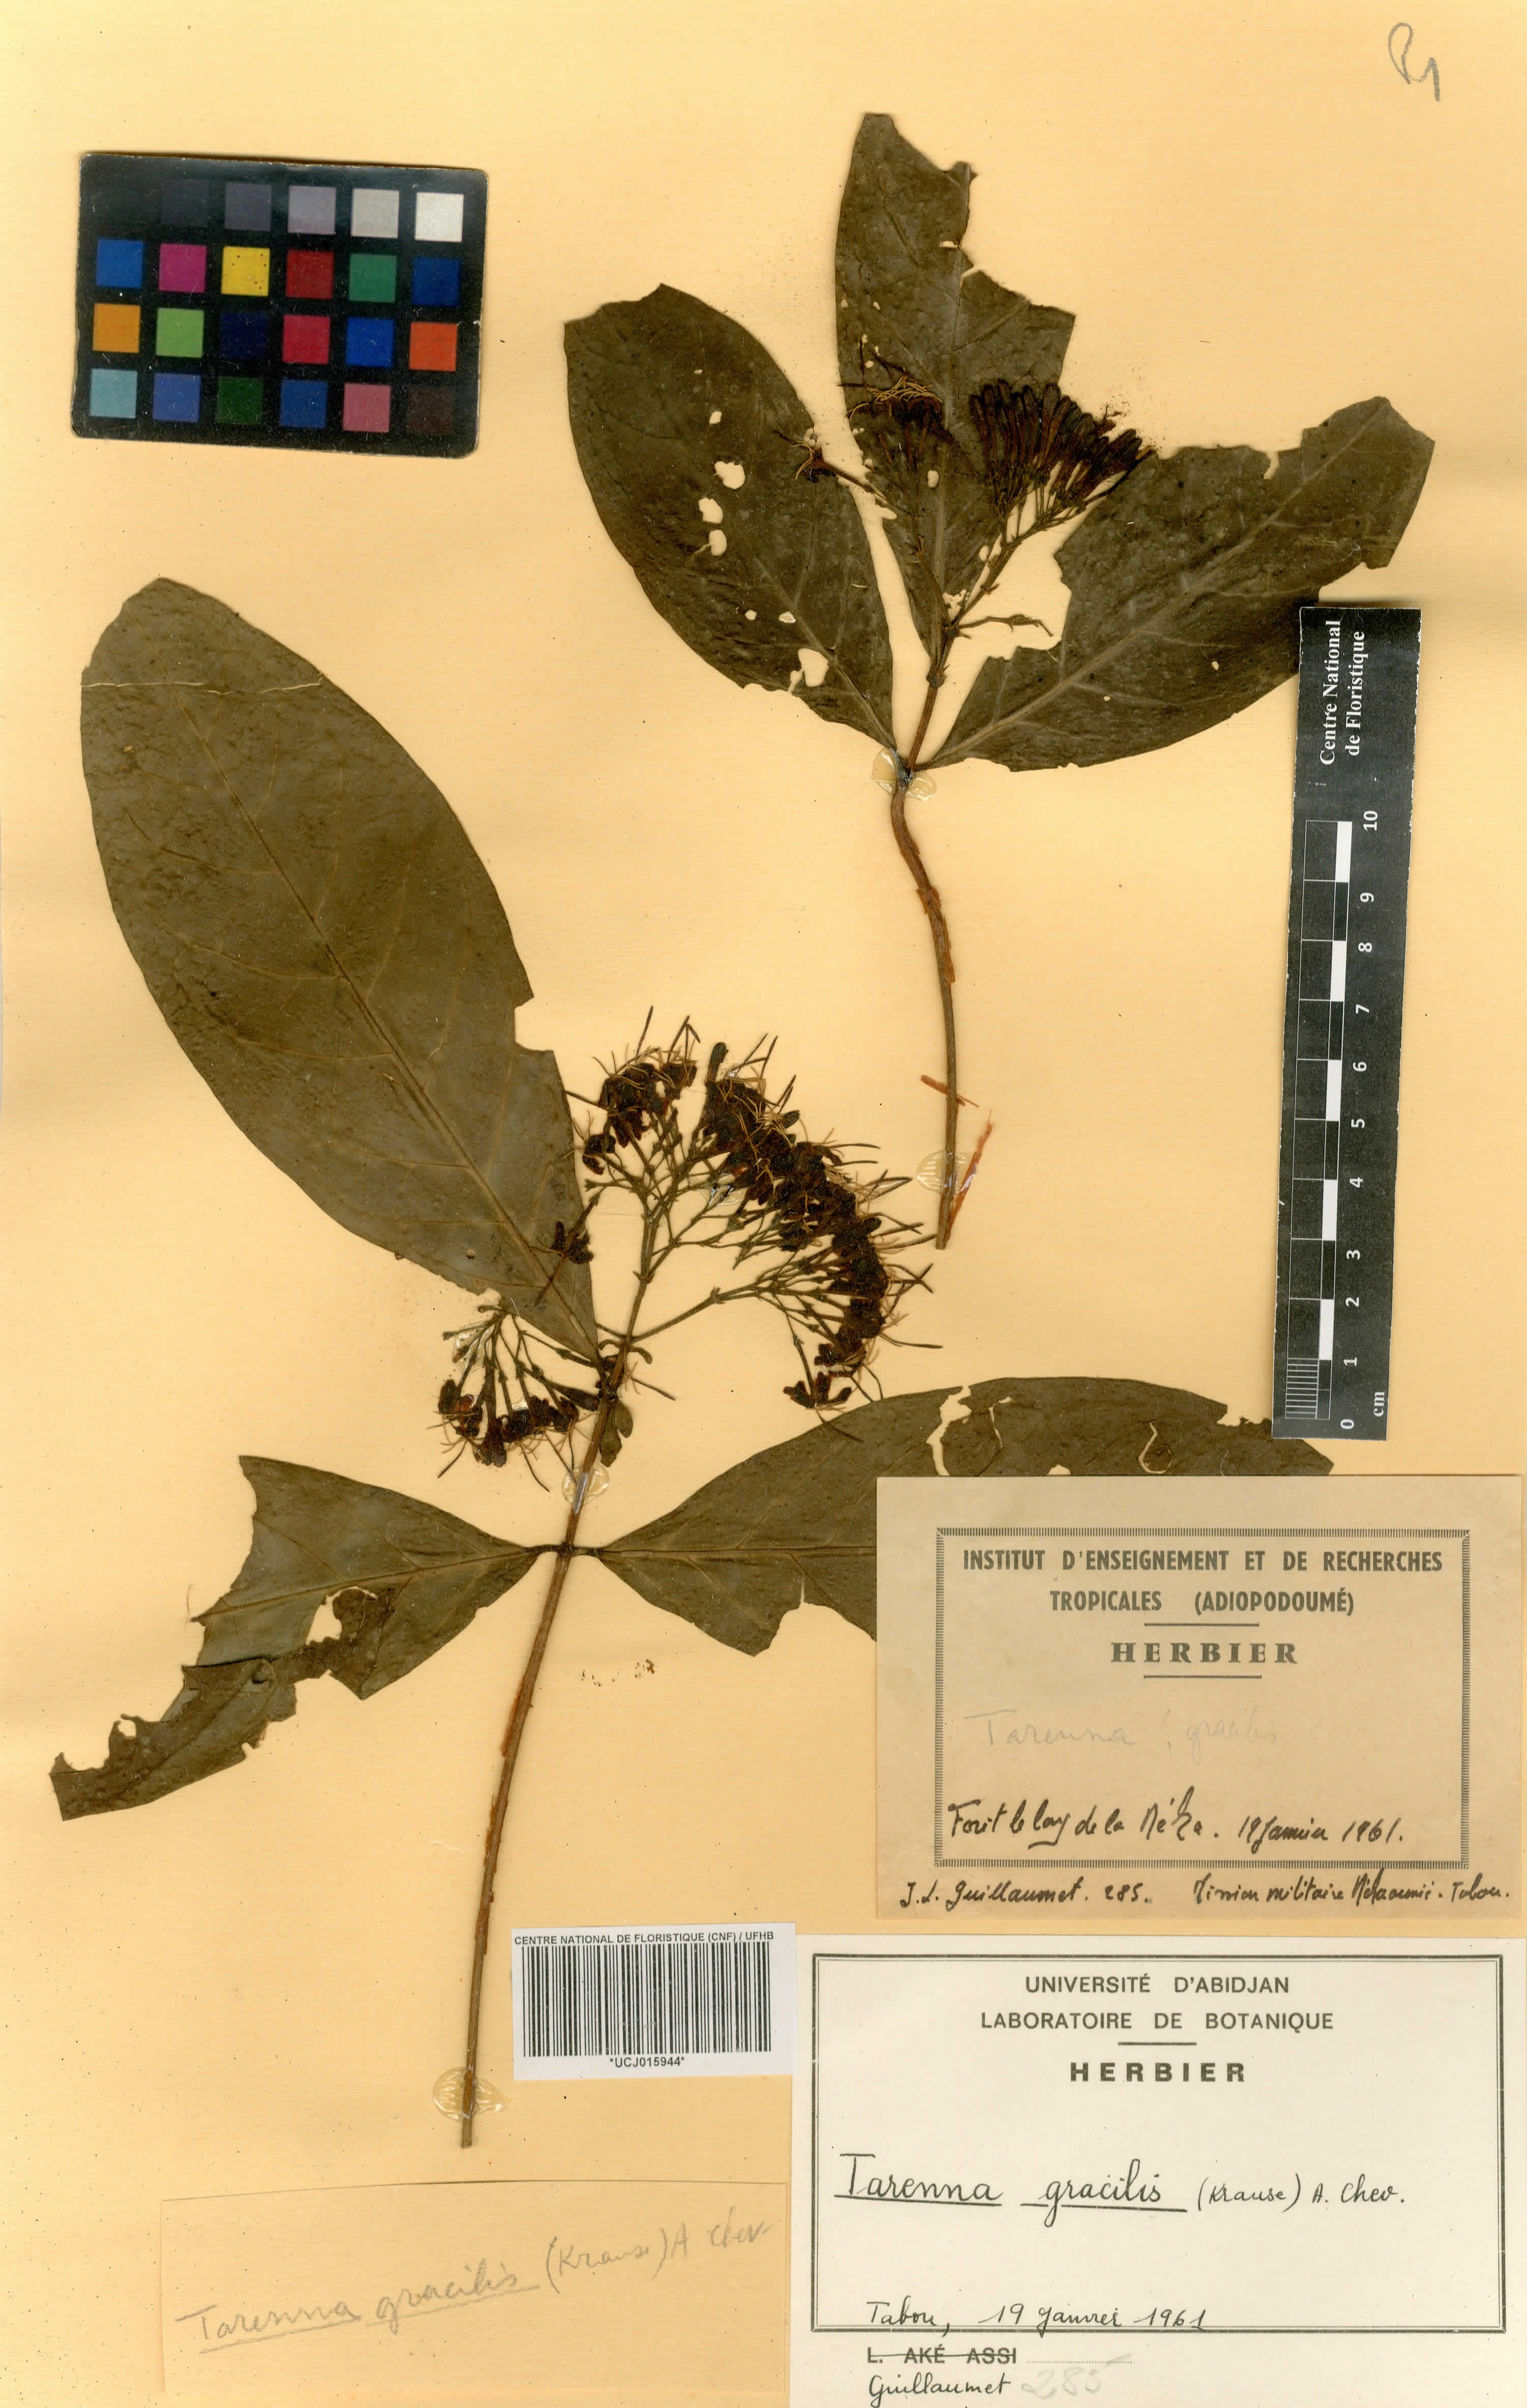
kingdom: Plantae
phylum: Tracheophyta
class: Magnoliopsida
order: Gentianales
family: Rubiaceae
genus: Tarenna
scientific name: Tarenna gracilis
